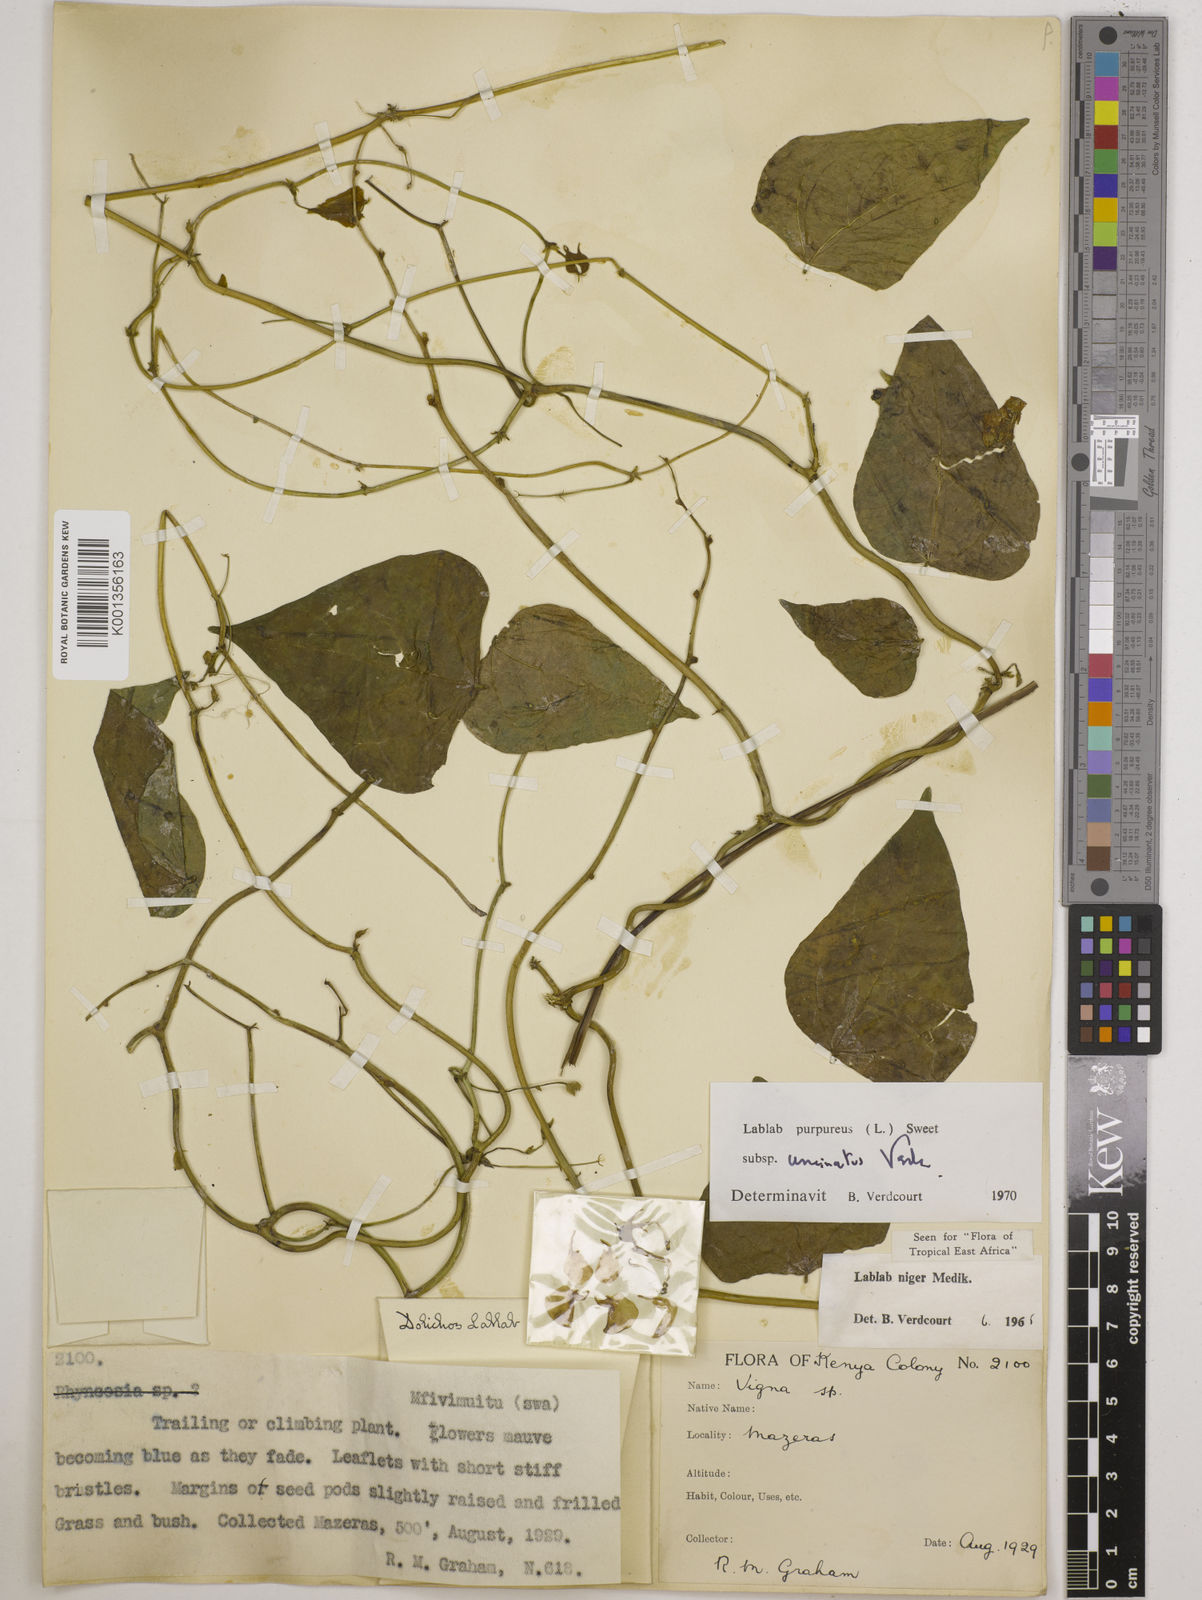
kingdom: Plantae
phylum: Tracheophyta
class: Magnoliopsida
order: Fabales
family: Fabaceae
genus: Lablab
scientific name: Lablab purpureus
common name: Lablab-bean
